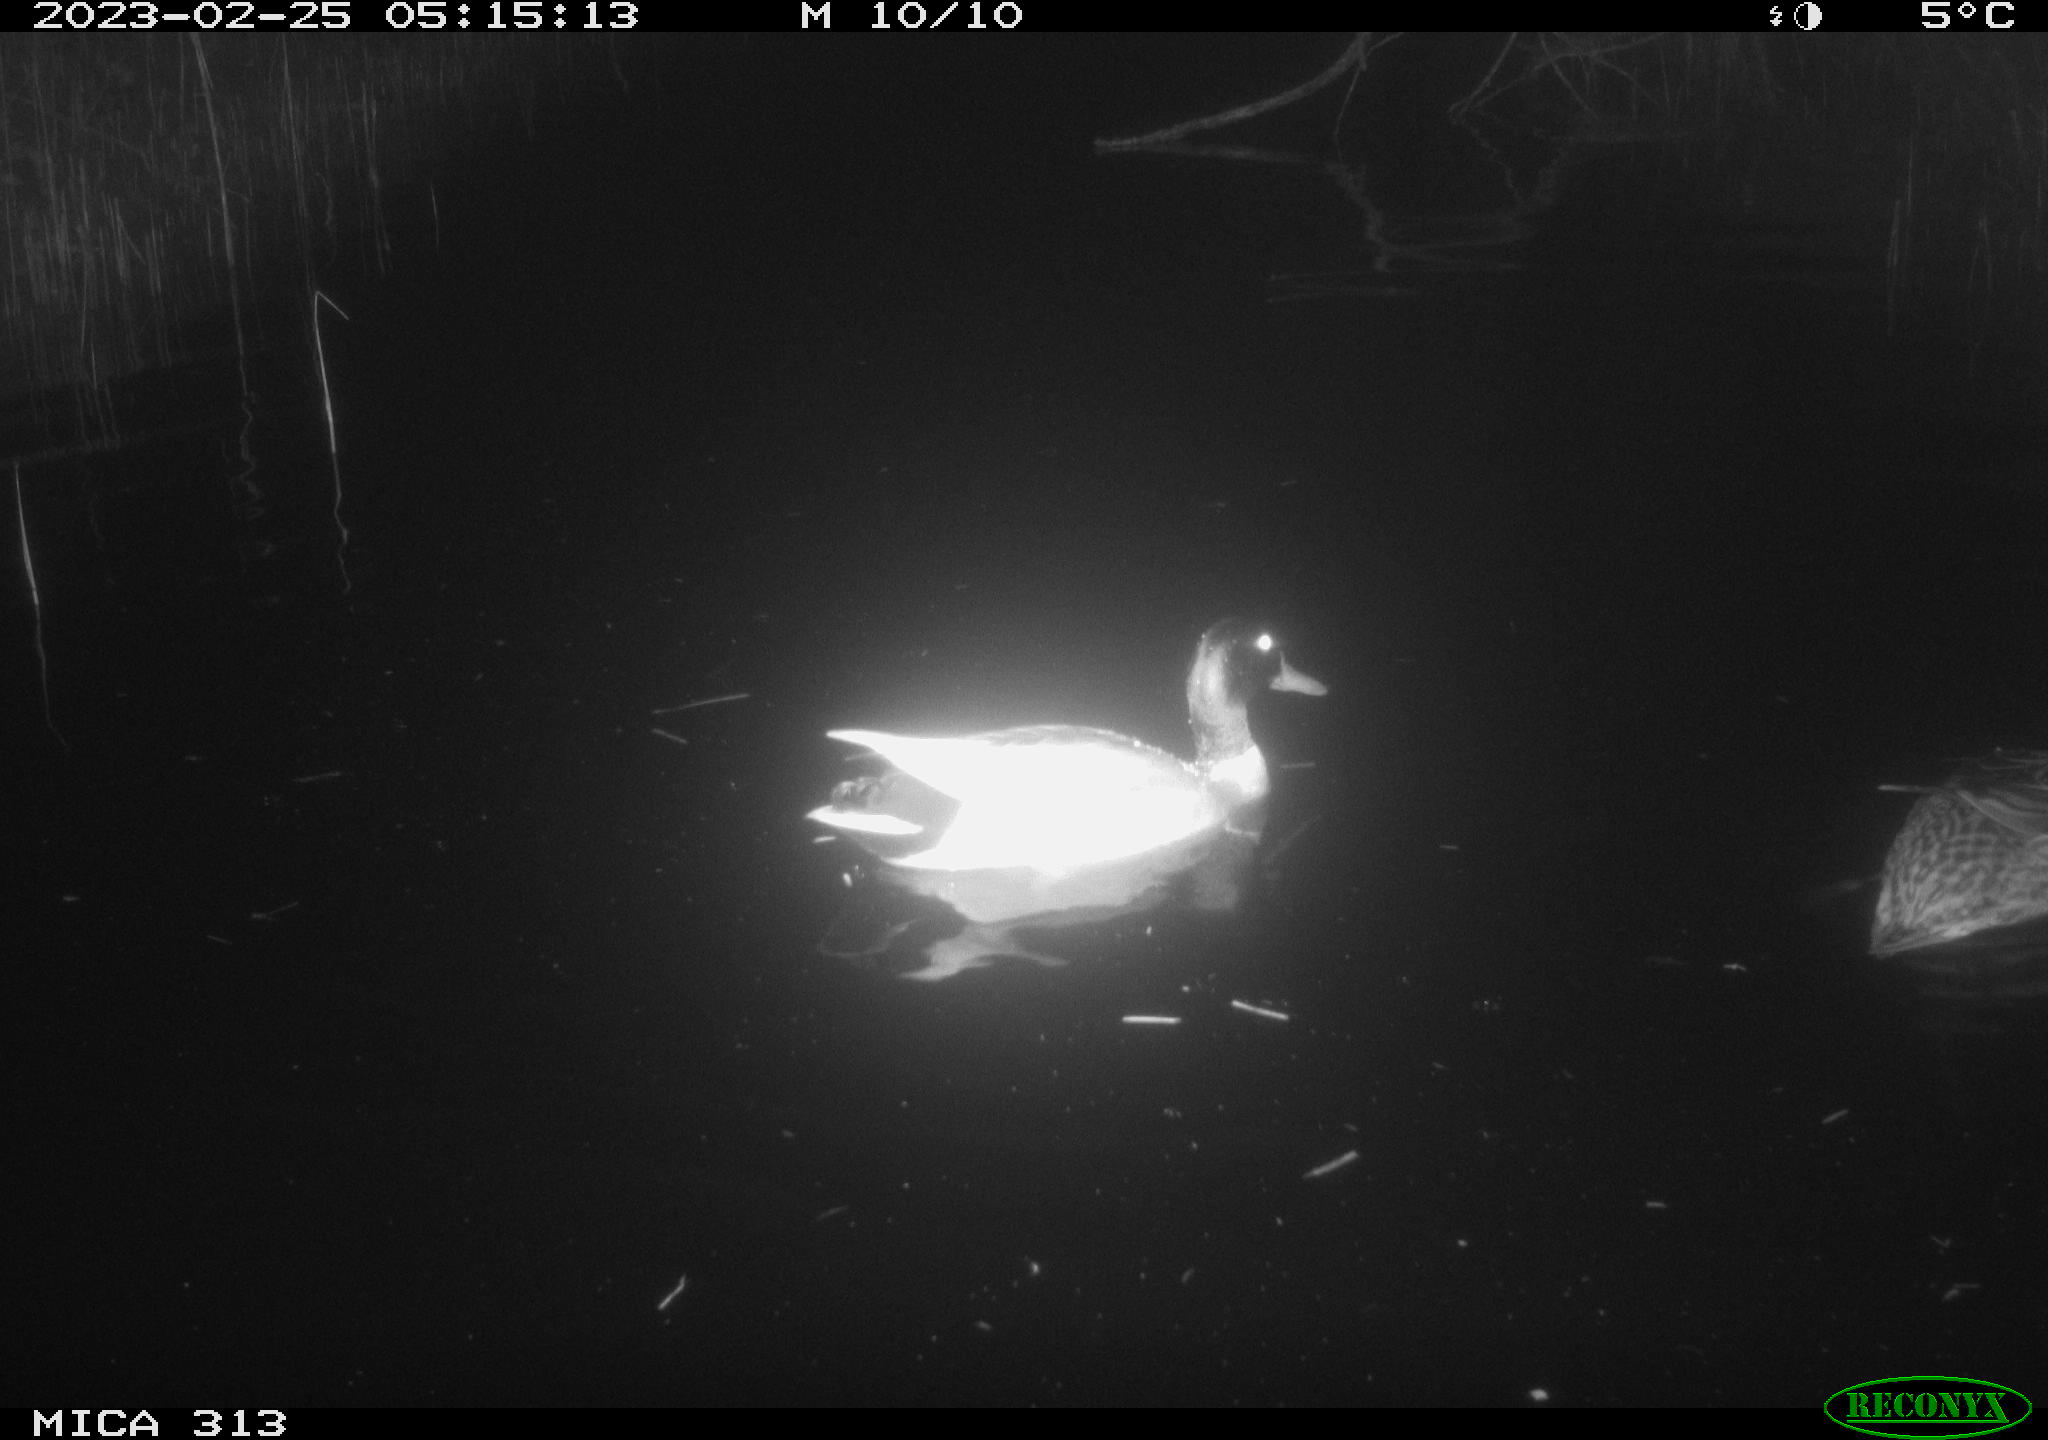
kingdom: Animalia
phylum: Chordata
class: Aves
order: Anseriformes
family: Anatidae
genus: Anas
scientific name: Anas
